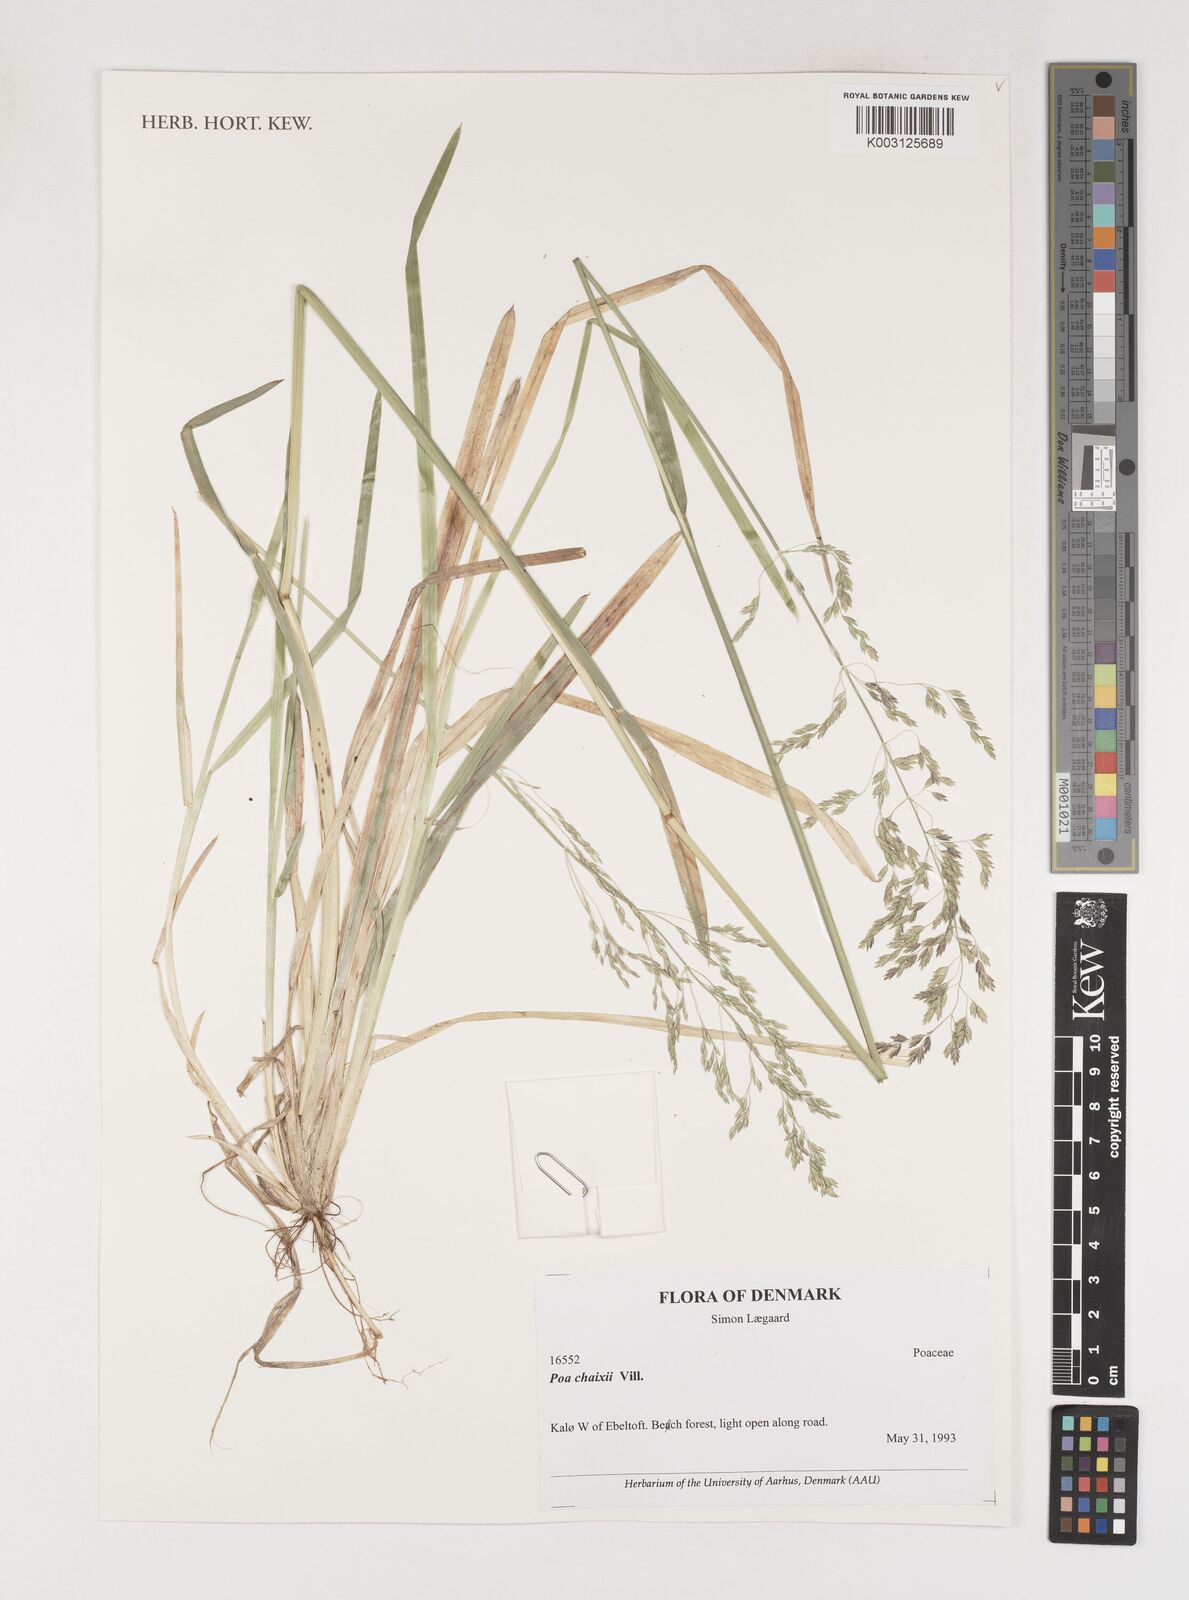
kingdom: Plantae
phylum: Tracheophyta
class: Liliopsida
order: Poales
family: Poaceae
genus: Poa
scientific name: Poa chaixii
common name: Broad-leaved meadow-grass
